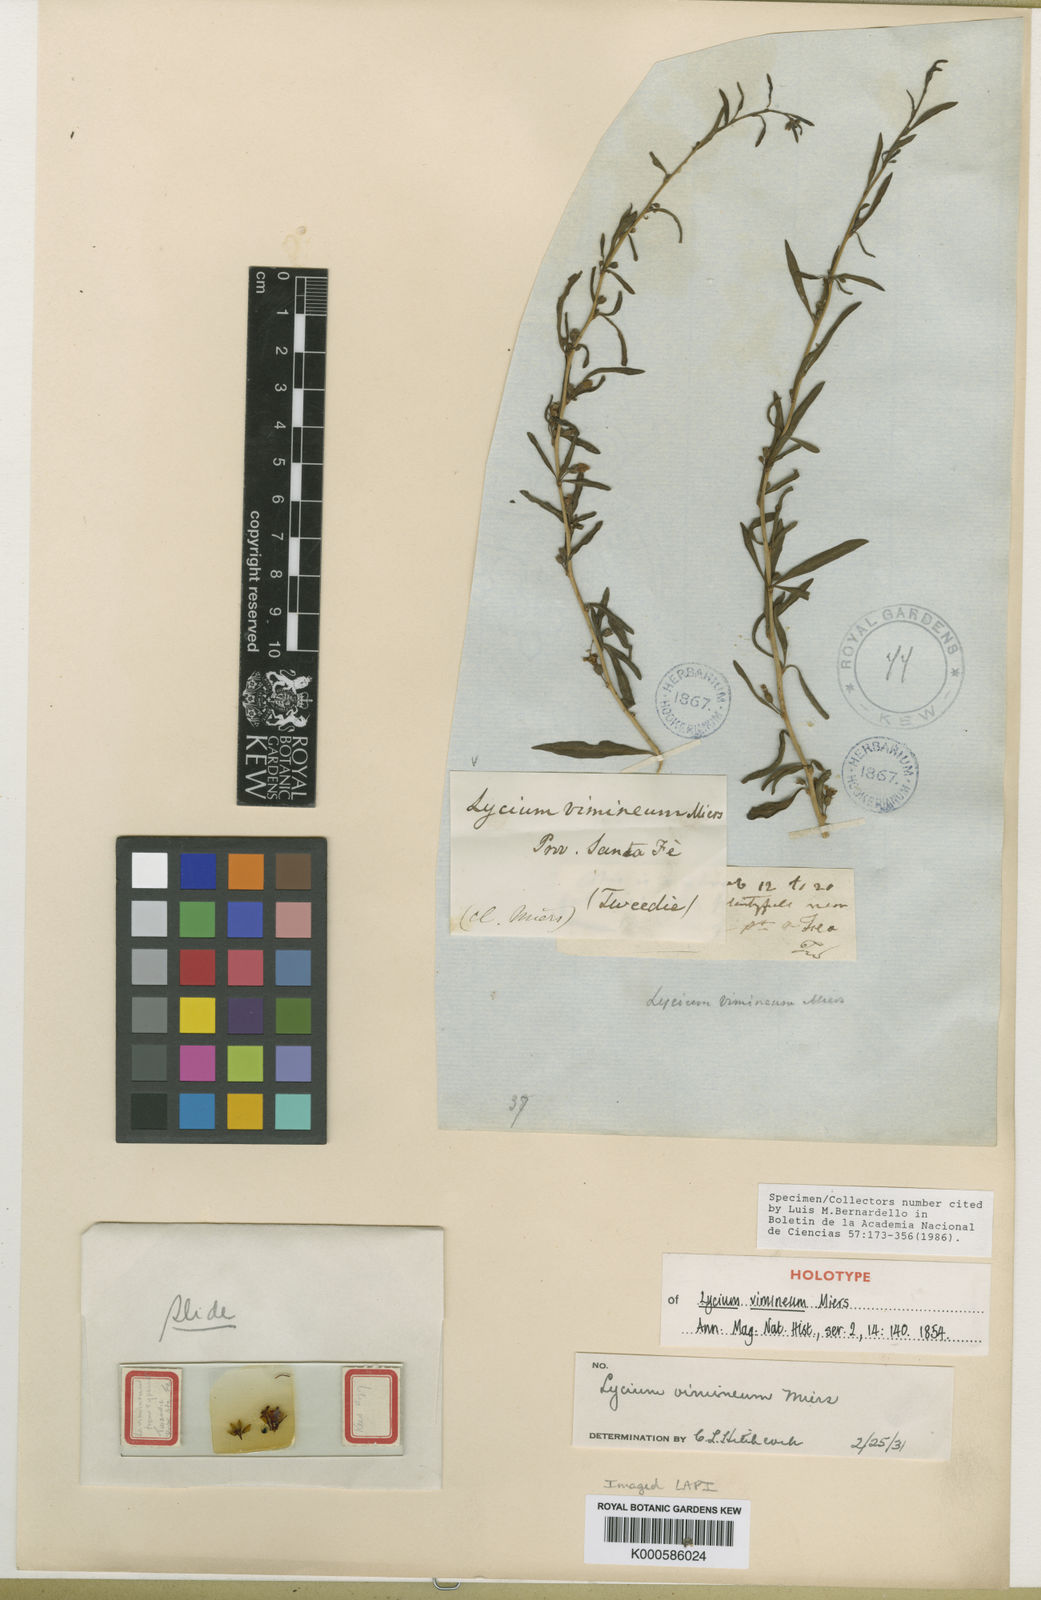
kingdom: Plantae
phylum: Tracheophyta
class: Magnoliopsida
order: Solanales
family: Solanaceae
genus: Lycium
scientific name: Lycium vimineum
